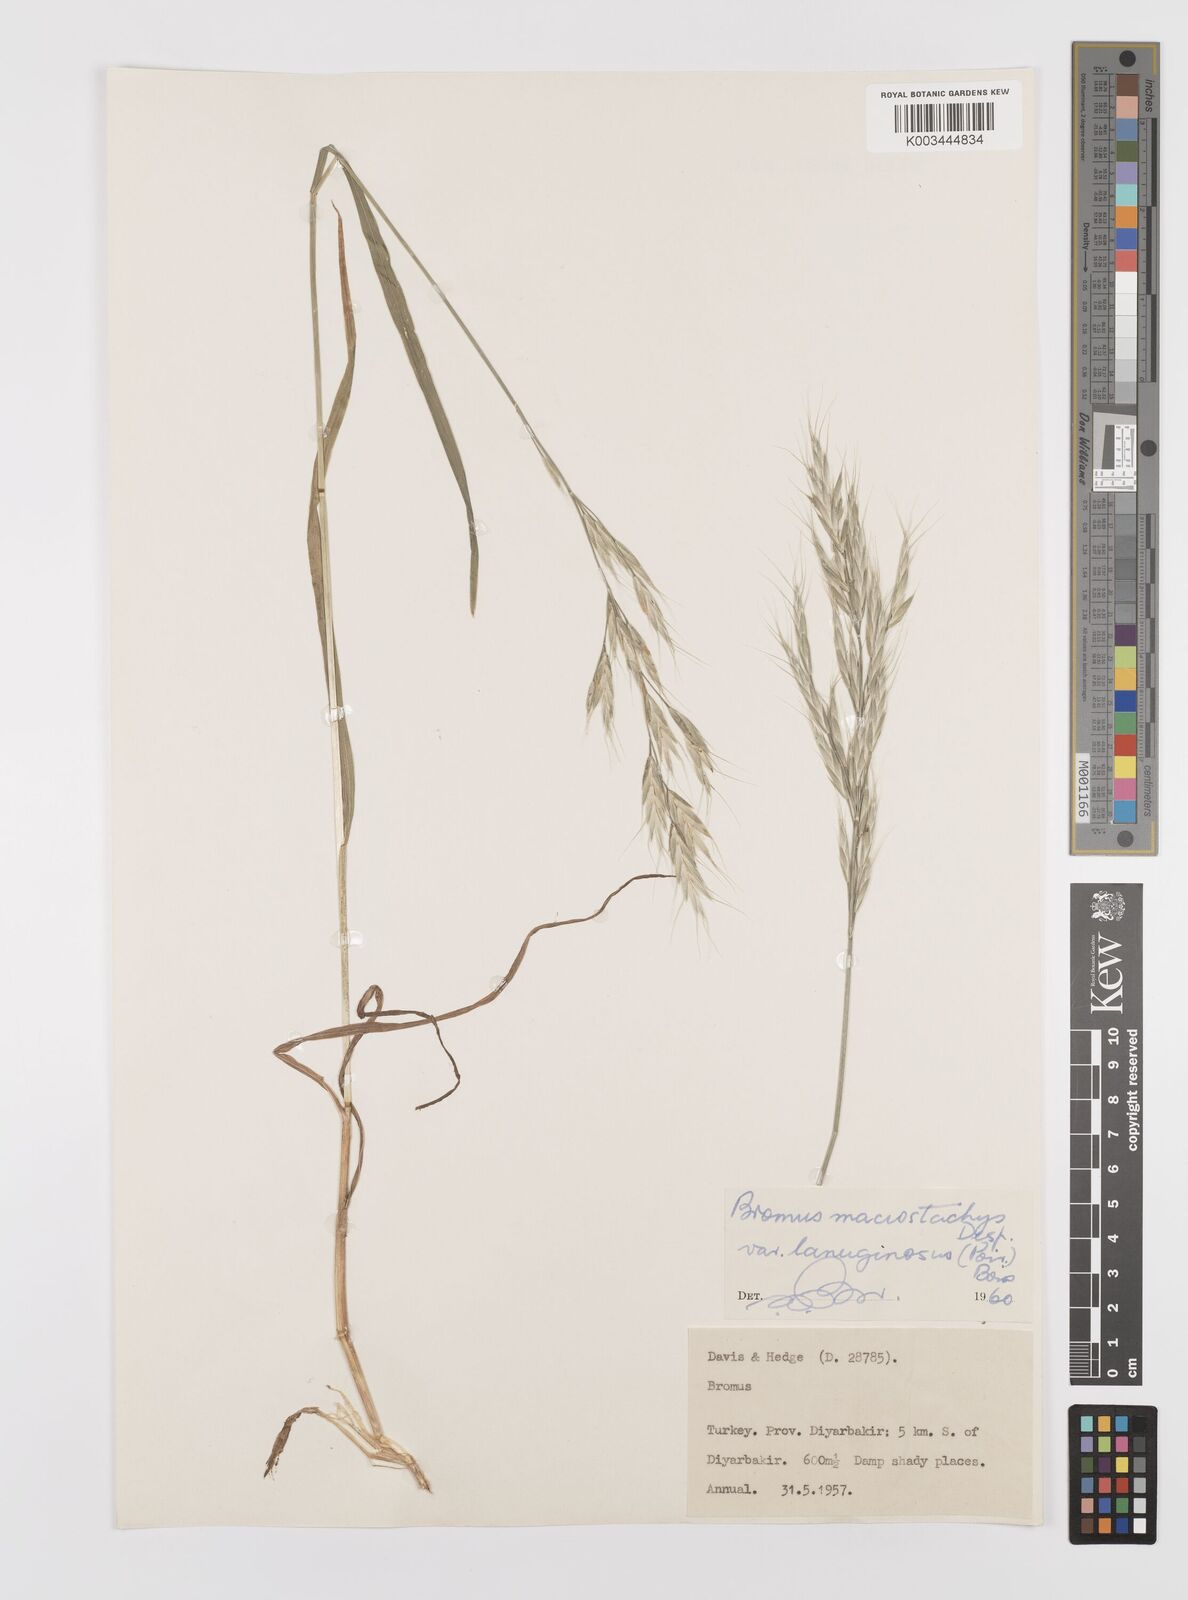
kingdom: Plantae
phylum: Tracheophyta
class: Liliopsida
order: Poales
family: Poaceae
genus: Bromus
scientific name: Bromus lanceolatus
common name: Mediterranean brome
